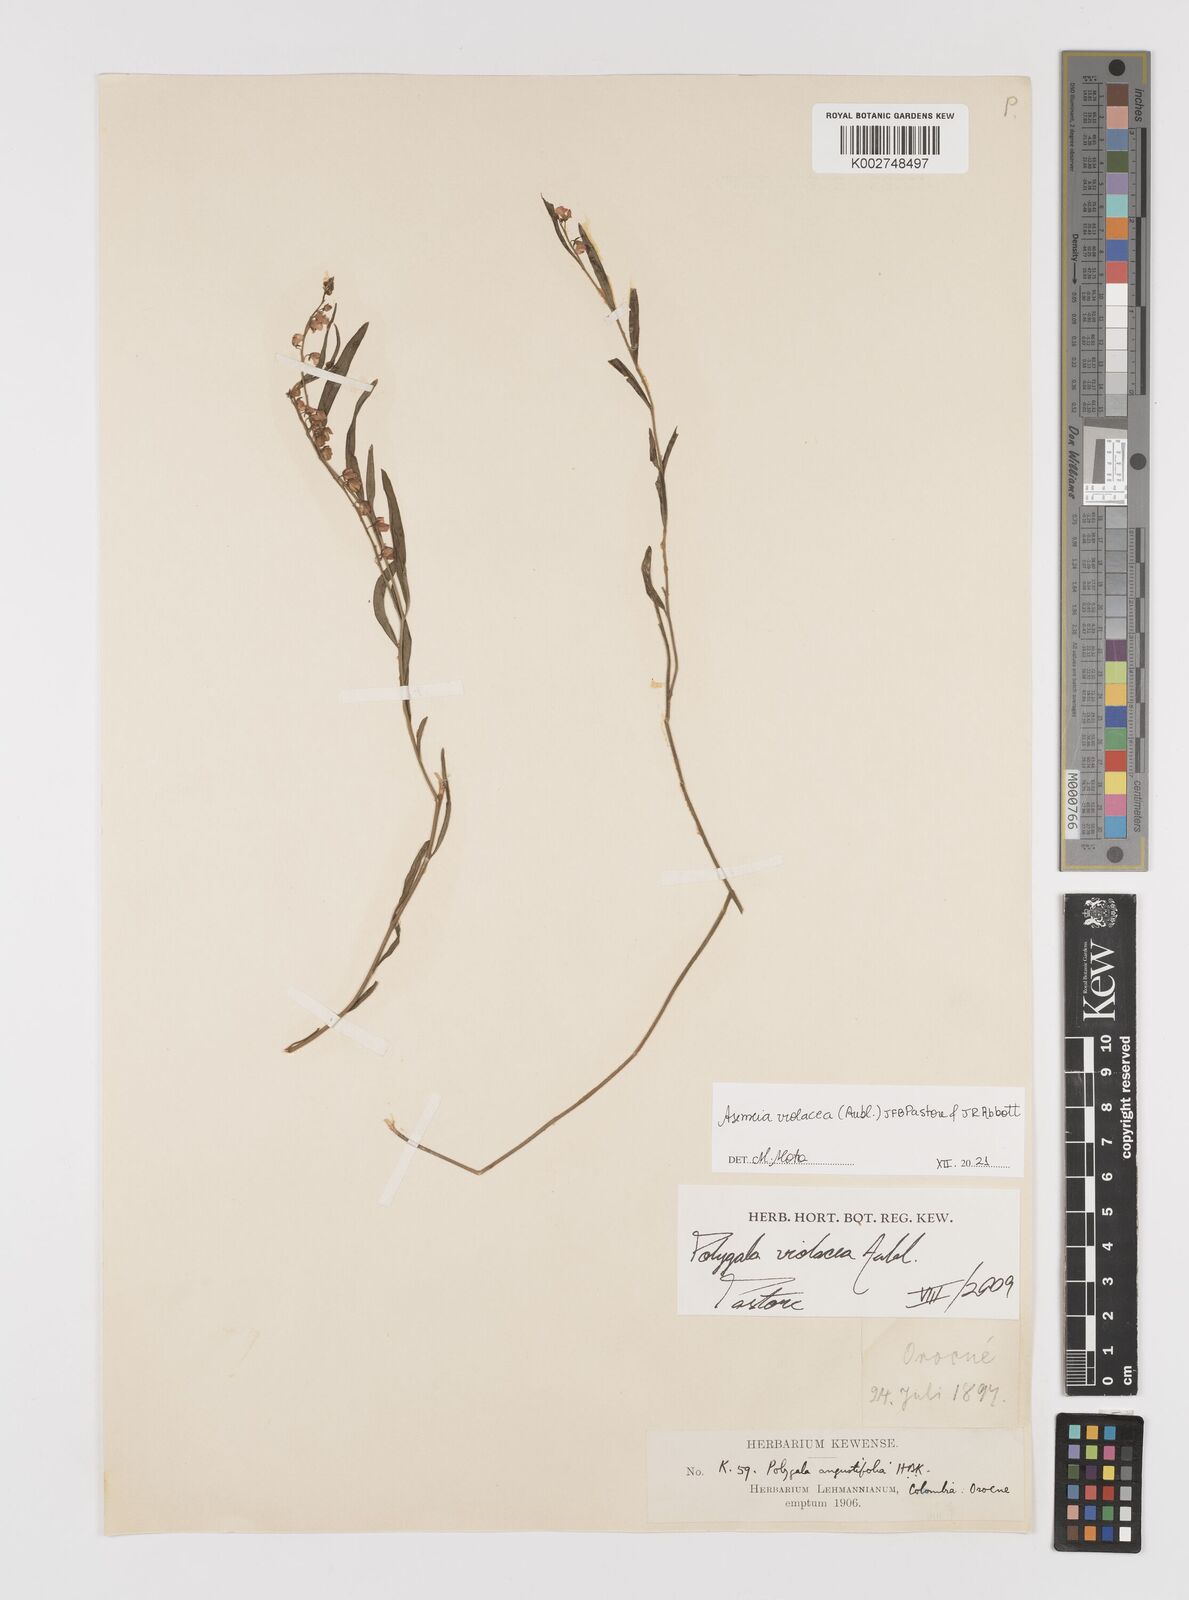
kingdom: Plantae
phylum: Tracheophyta
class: Magnoliopsida
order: Fabales
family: Polygalaceae
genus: Asemeia
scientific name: Asemeia violacea
